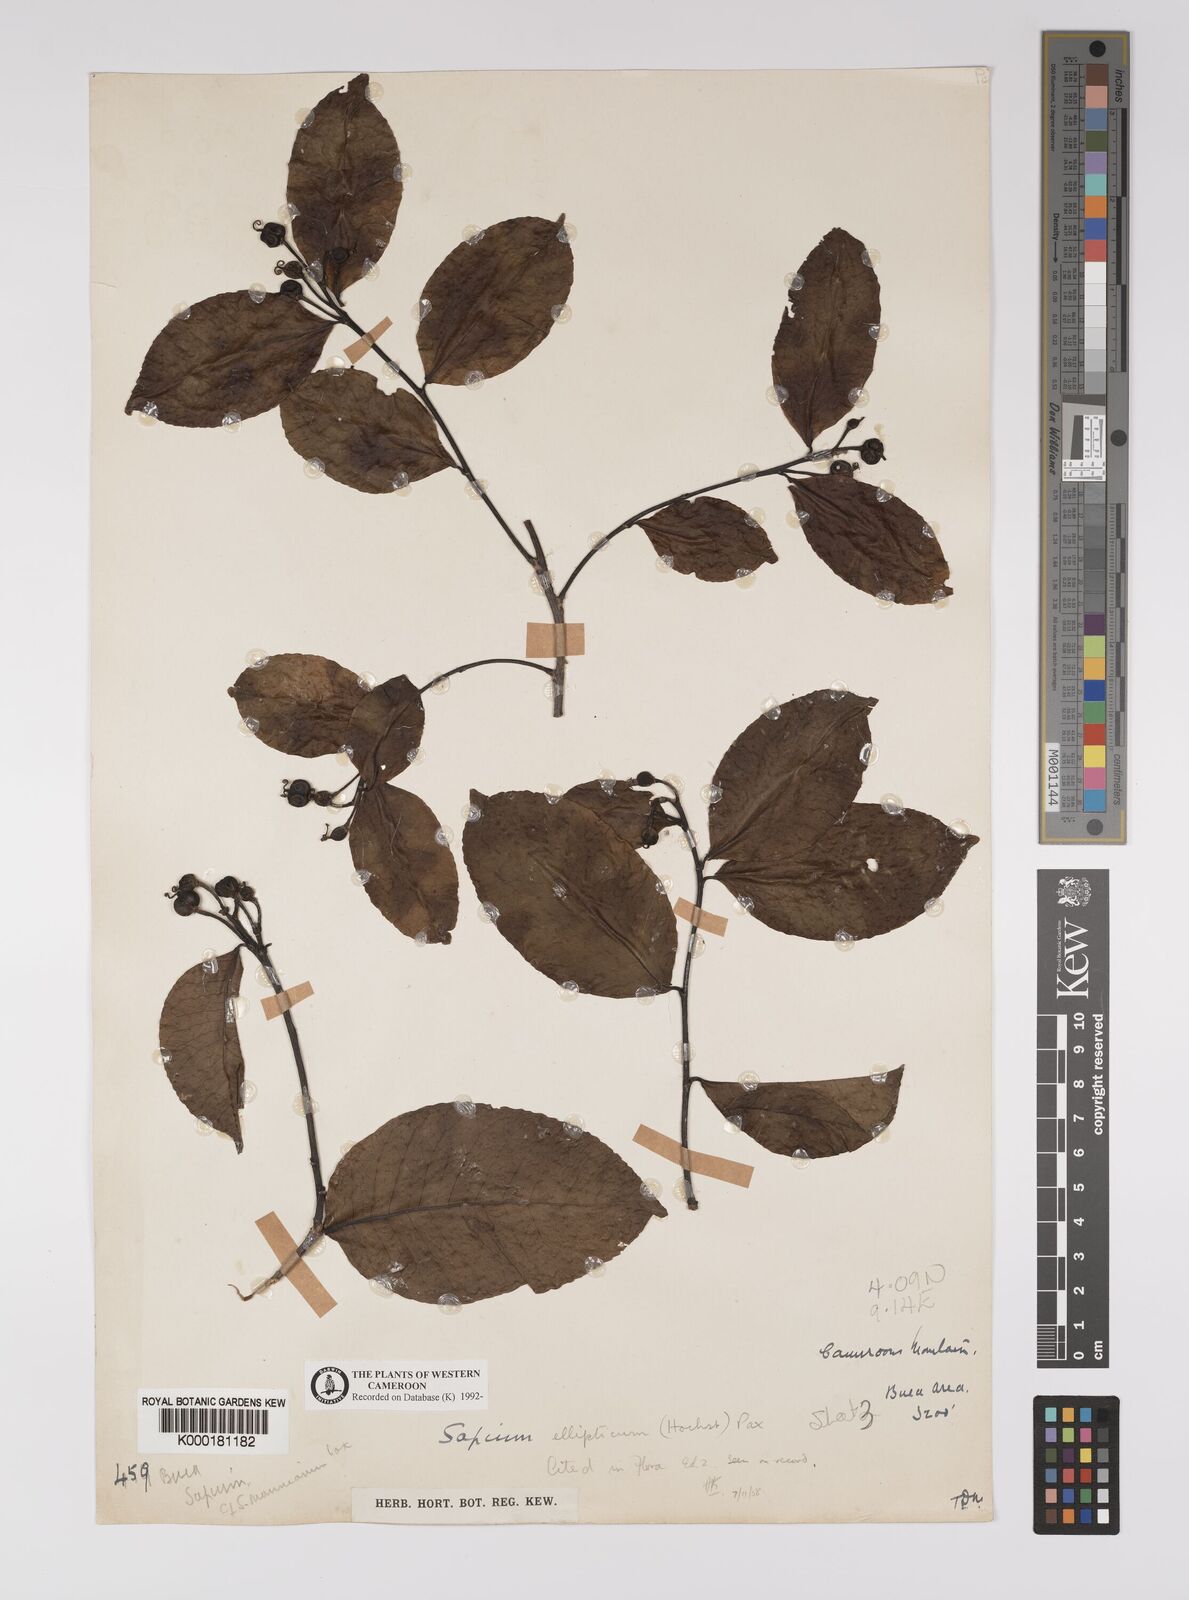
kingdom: Plantae
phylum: Tracheophyta
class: Magnoliopsida
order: Malpighiales
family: Euphorbiaceae
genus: Shirakiopsis
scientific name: Shirakiopsis elliptica
